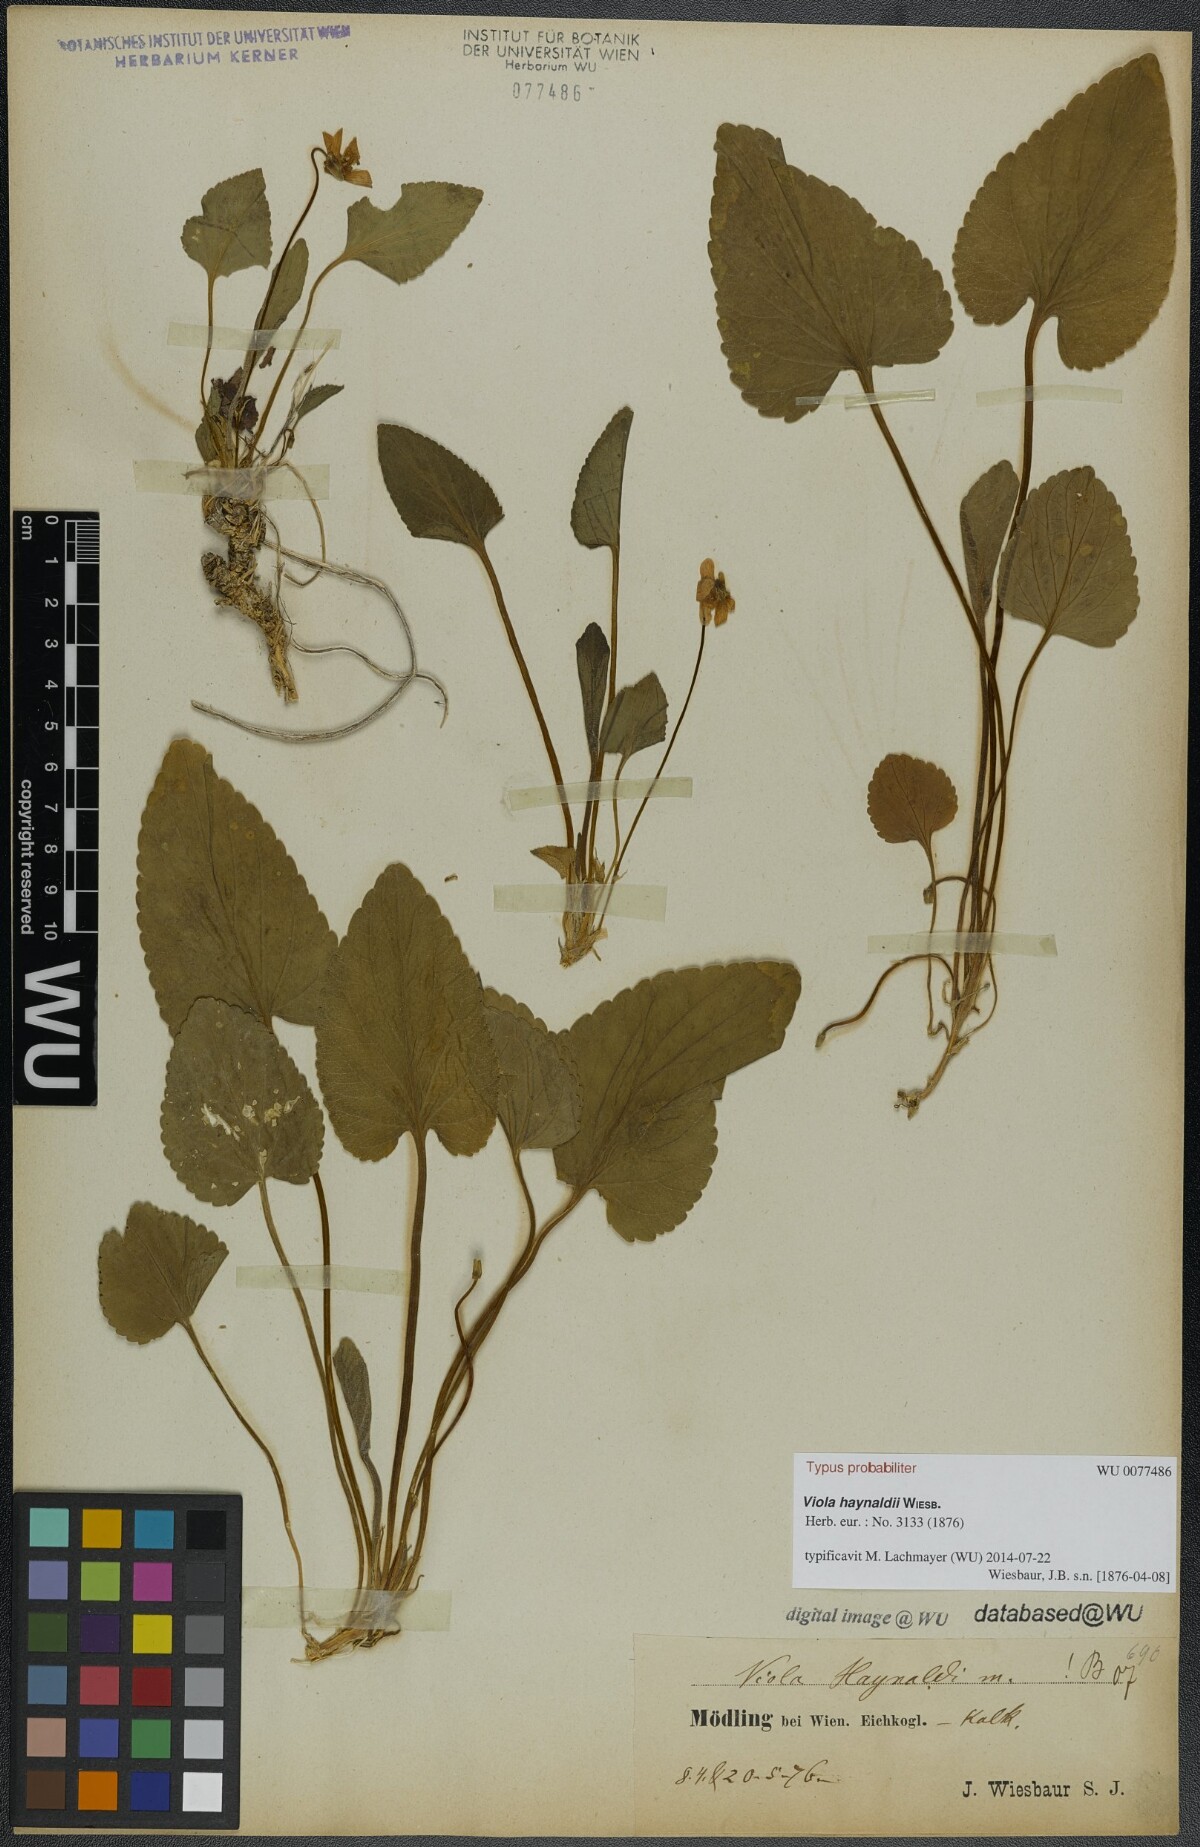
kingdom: Plantae
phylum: Tracheophyta
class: Magnoliopsida
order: Malpighiales
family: Violaceae
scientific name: Violaceae
